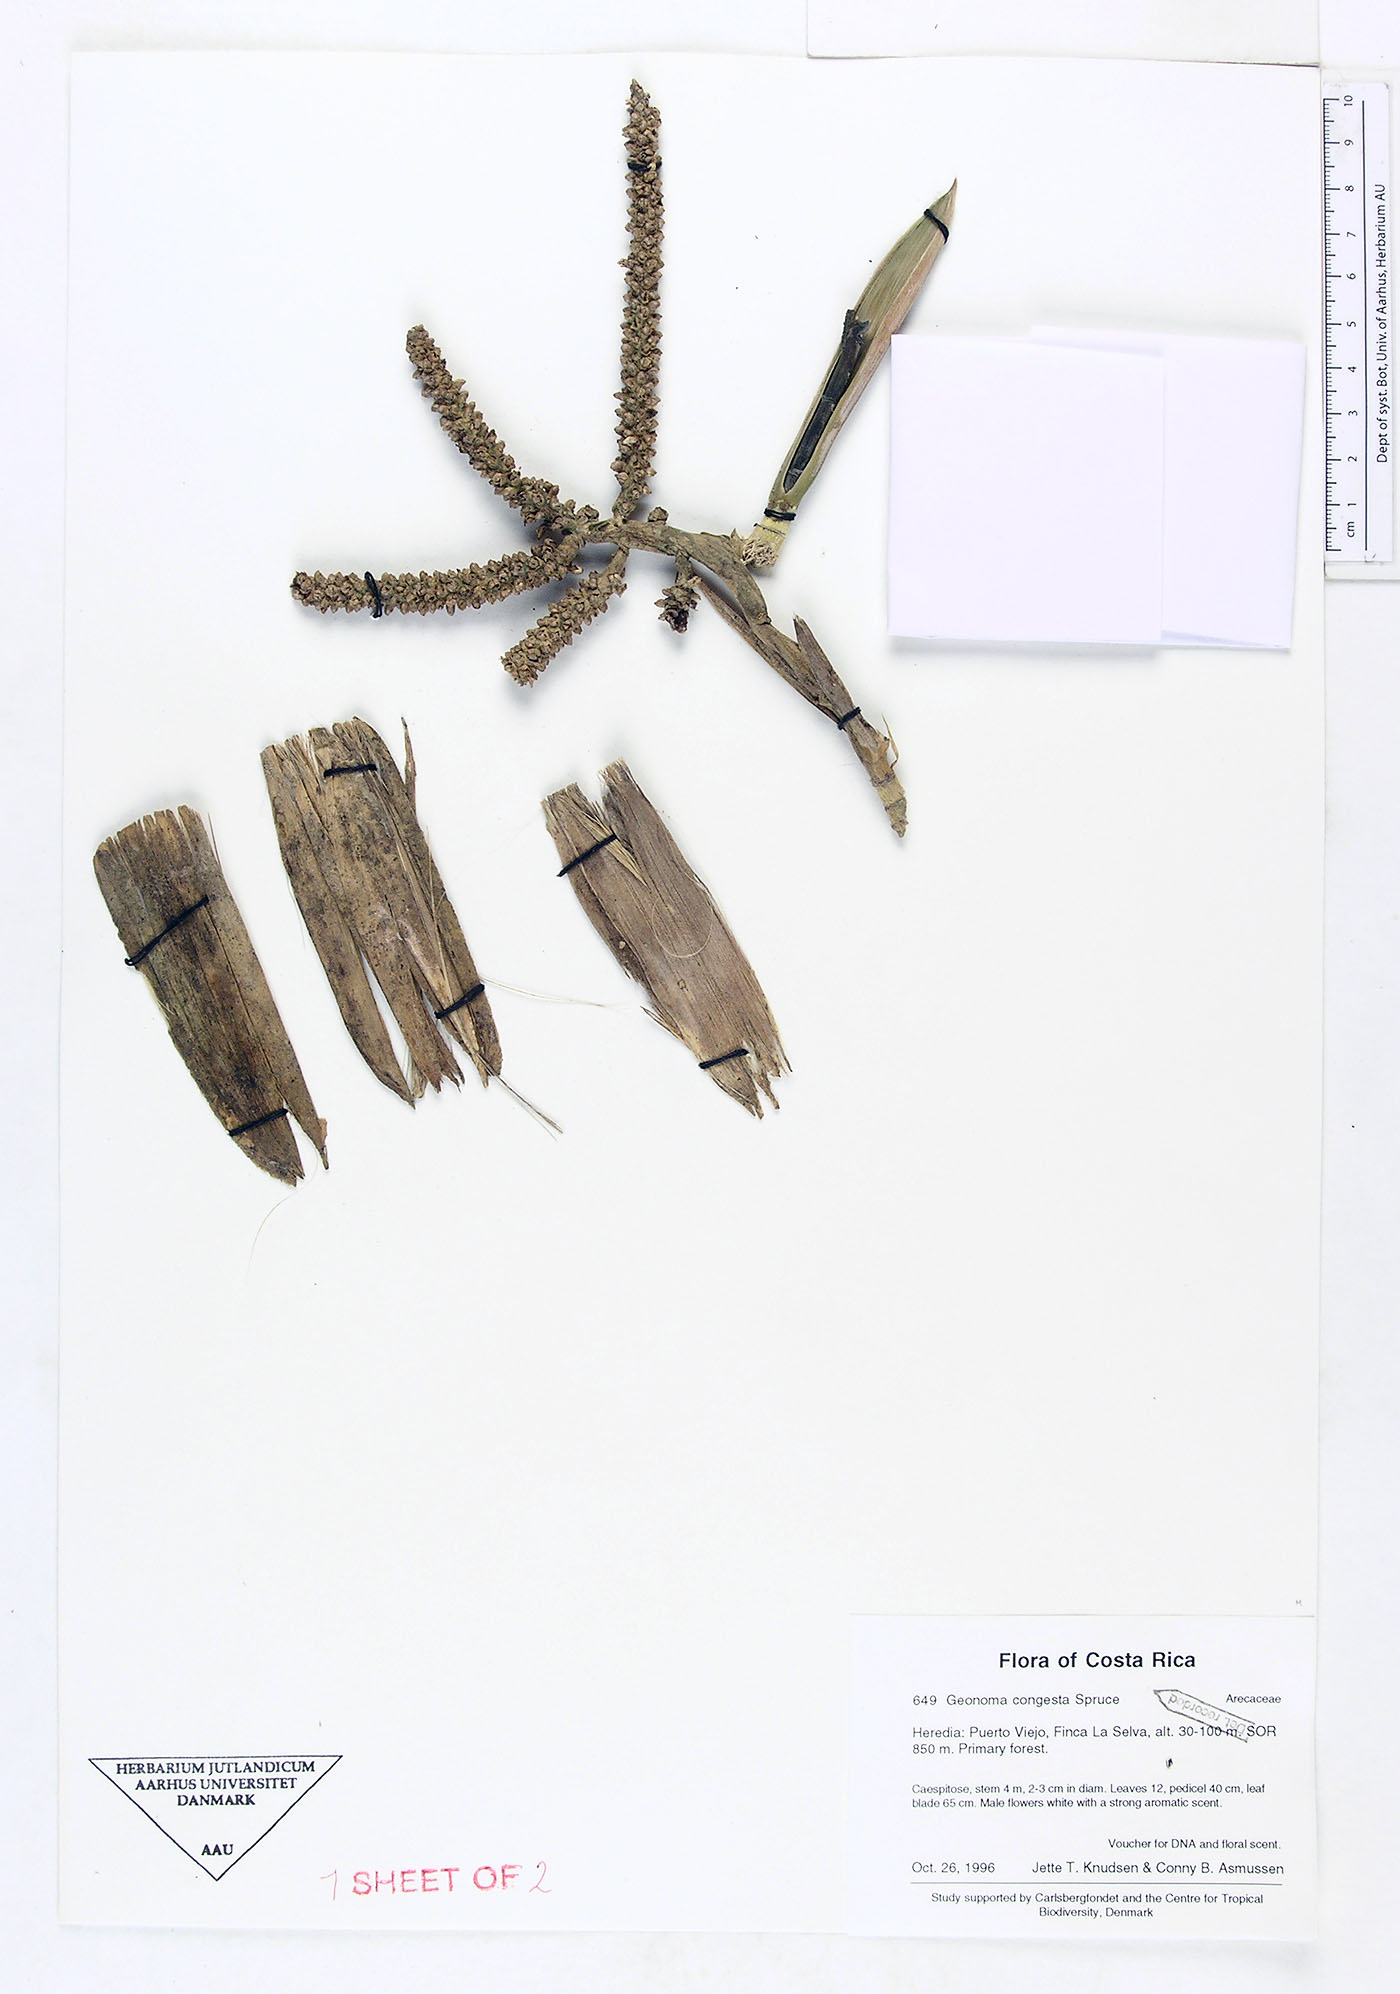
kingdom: Plantae
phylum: Tracheophyta
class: Liliopsida
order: Arecales
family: Arecaceae
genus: Geonoma
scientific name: Geonoma congesta
